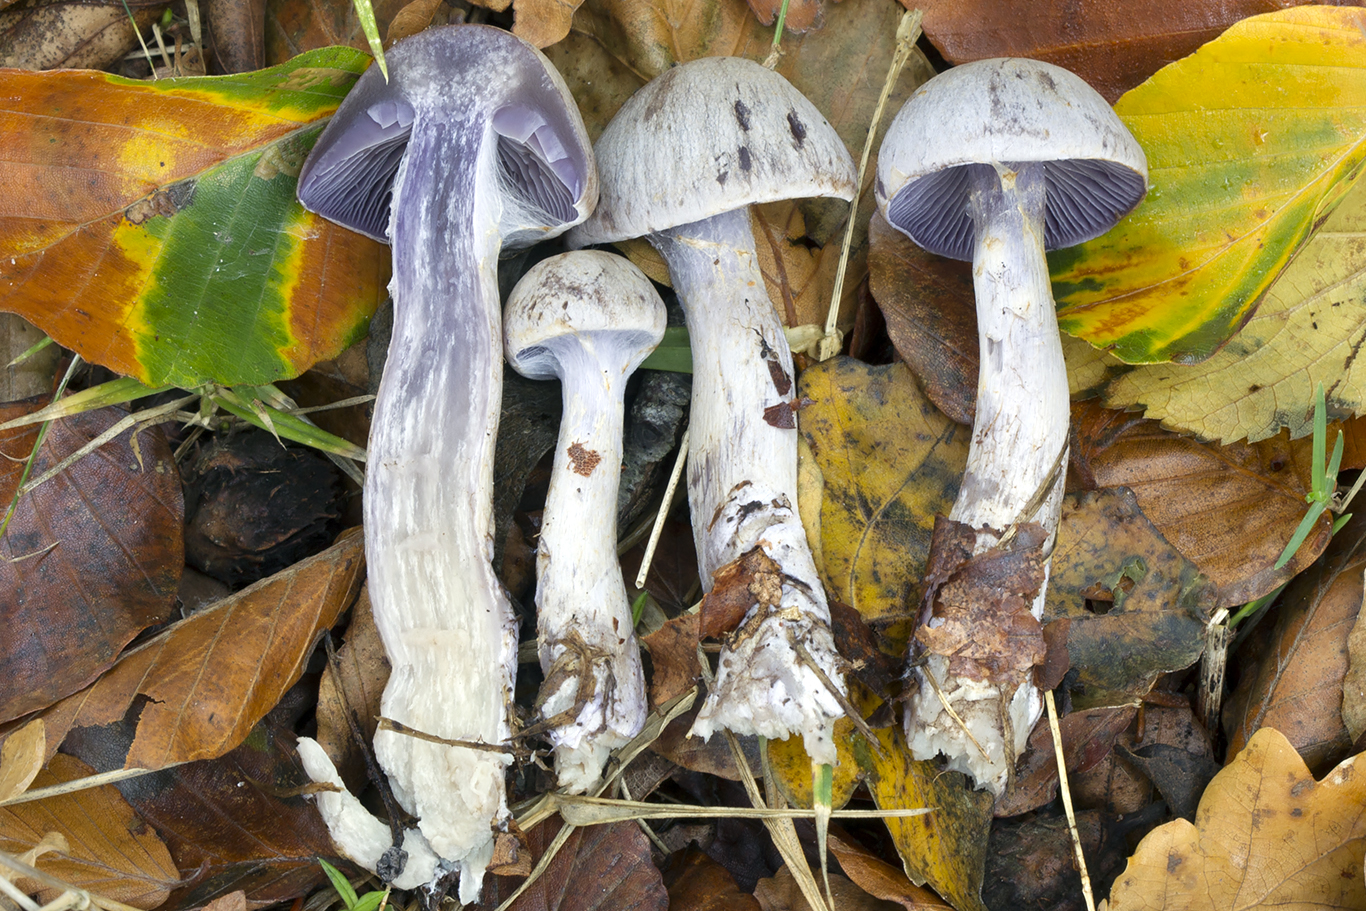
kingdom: Fungi
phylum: Basidiomycota
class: Agaricomycetes
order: Agaricales
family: Cortinariaceae
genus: Cortinarius
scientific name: Cortinarius pelerinii
